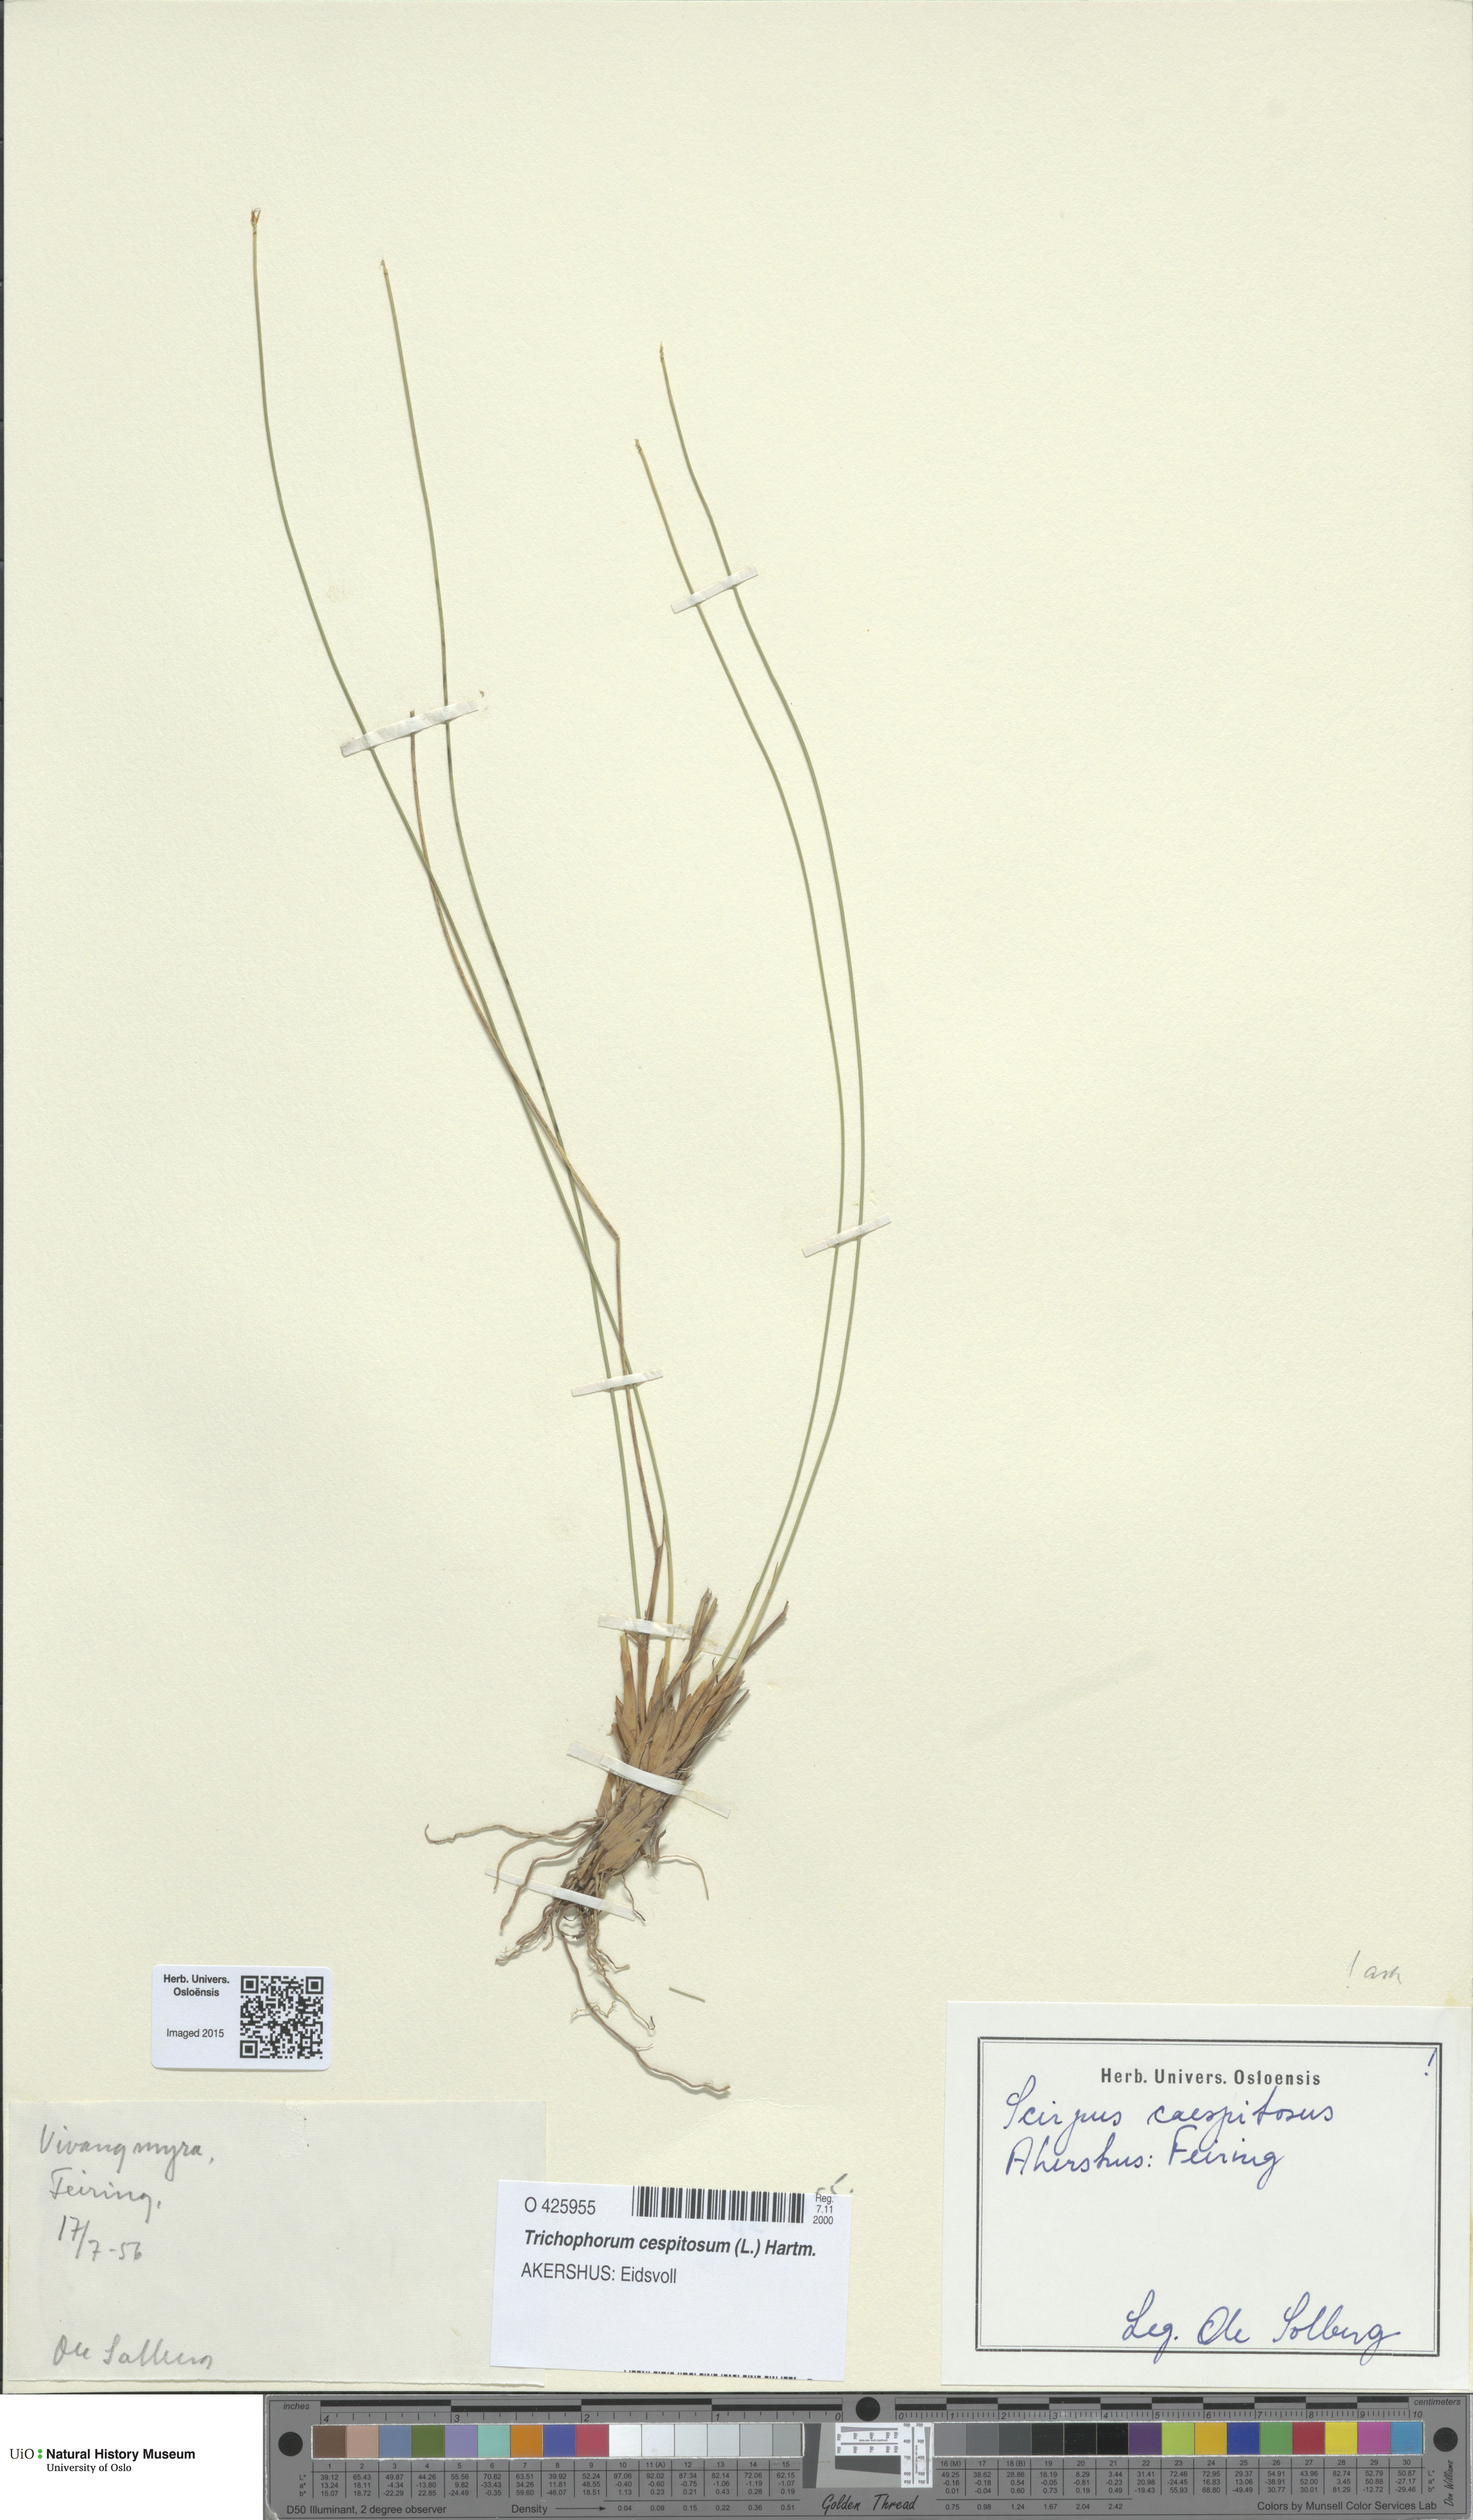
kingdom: Plantae
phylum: Tracheophyta
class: Liliopsida
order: Poales
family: Cyperaceae
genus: Trichophorum
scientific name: Trichophorum cespitosum
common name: Cespitose bulrush
